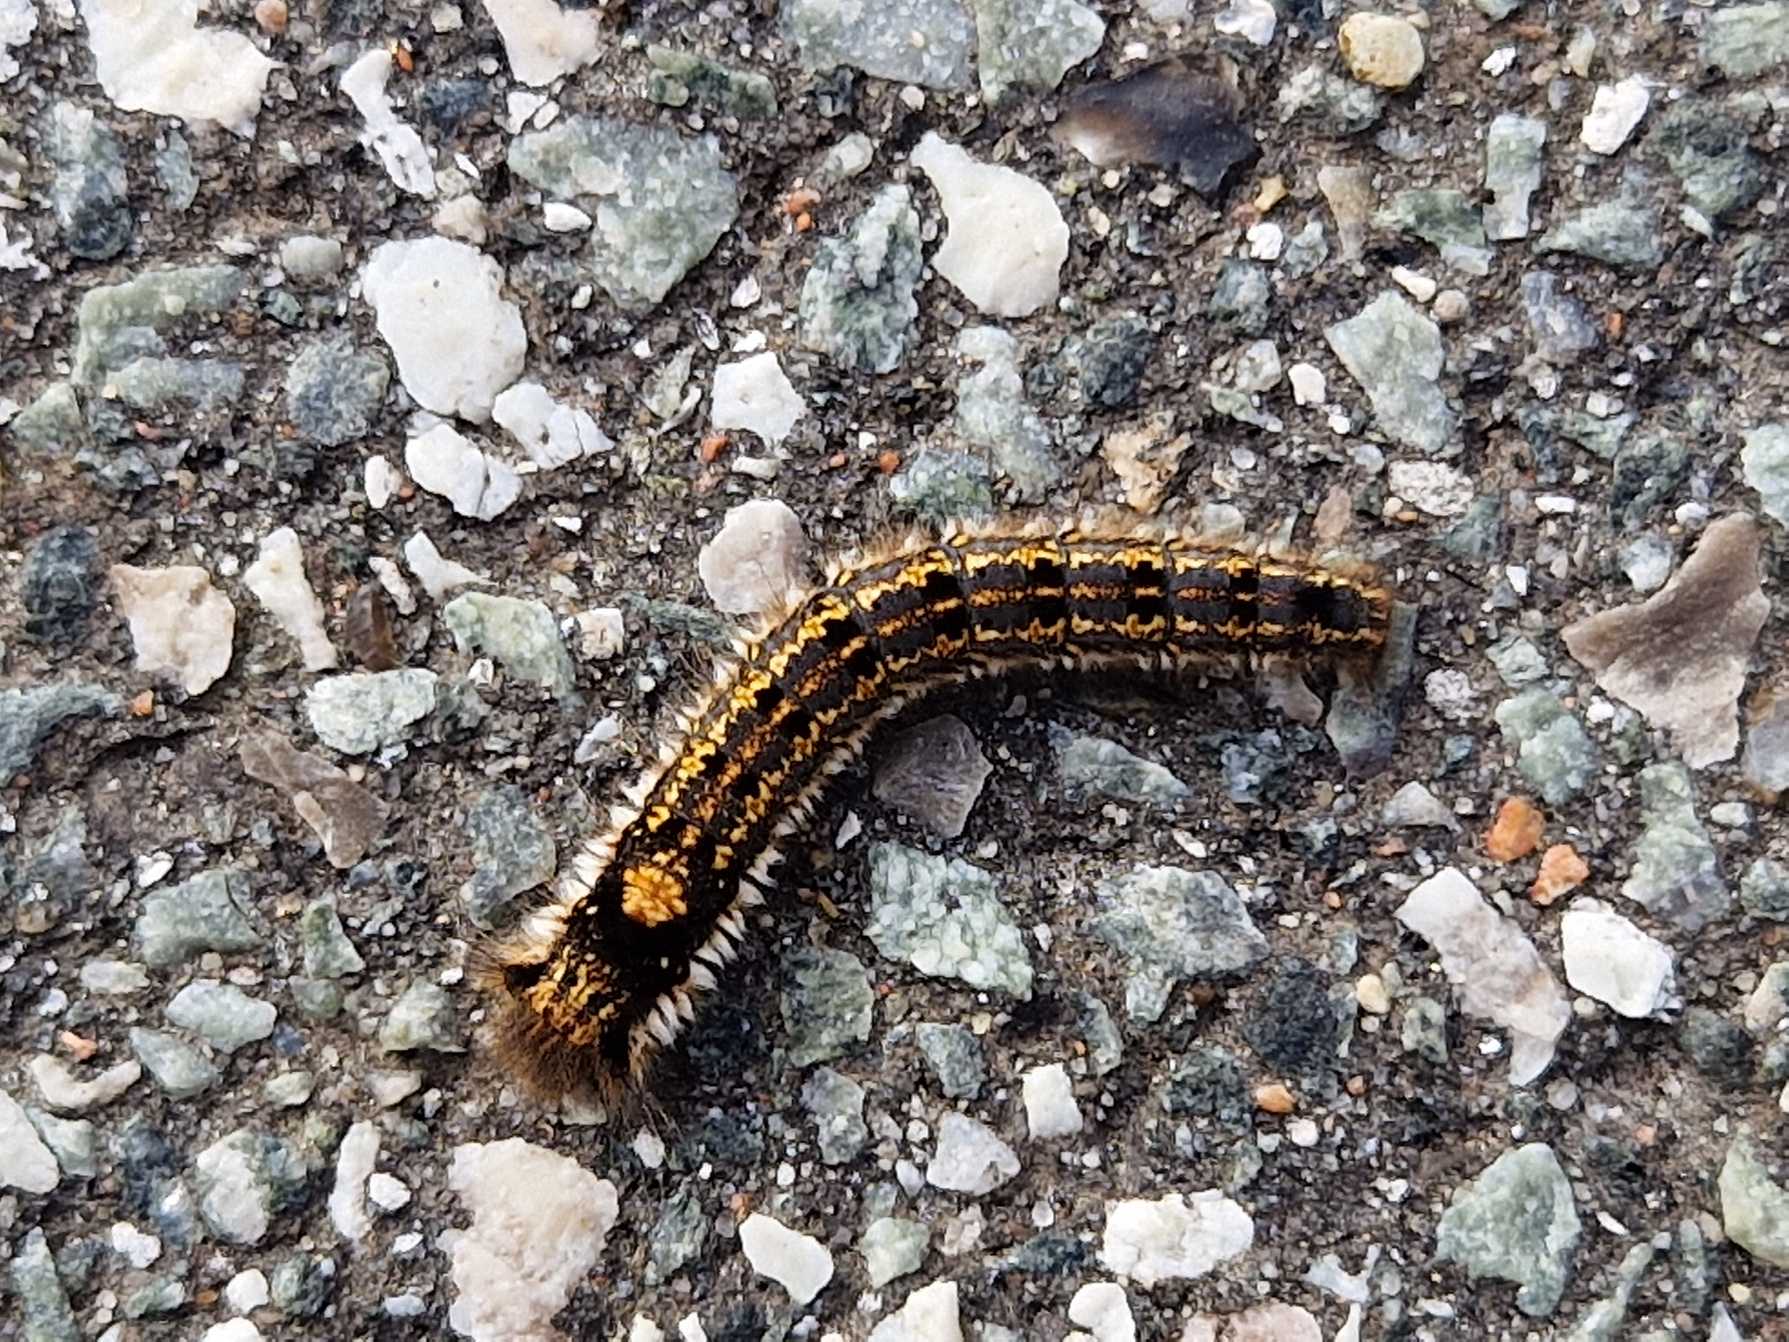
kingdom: Animalia
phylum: Arthropoda
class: Insecta
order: Lepidoptera
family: Lasiocampidae
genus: Euthrix
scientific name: Euthrix potatoria
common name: Græsspinder
